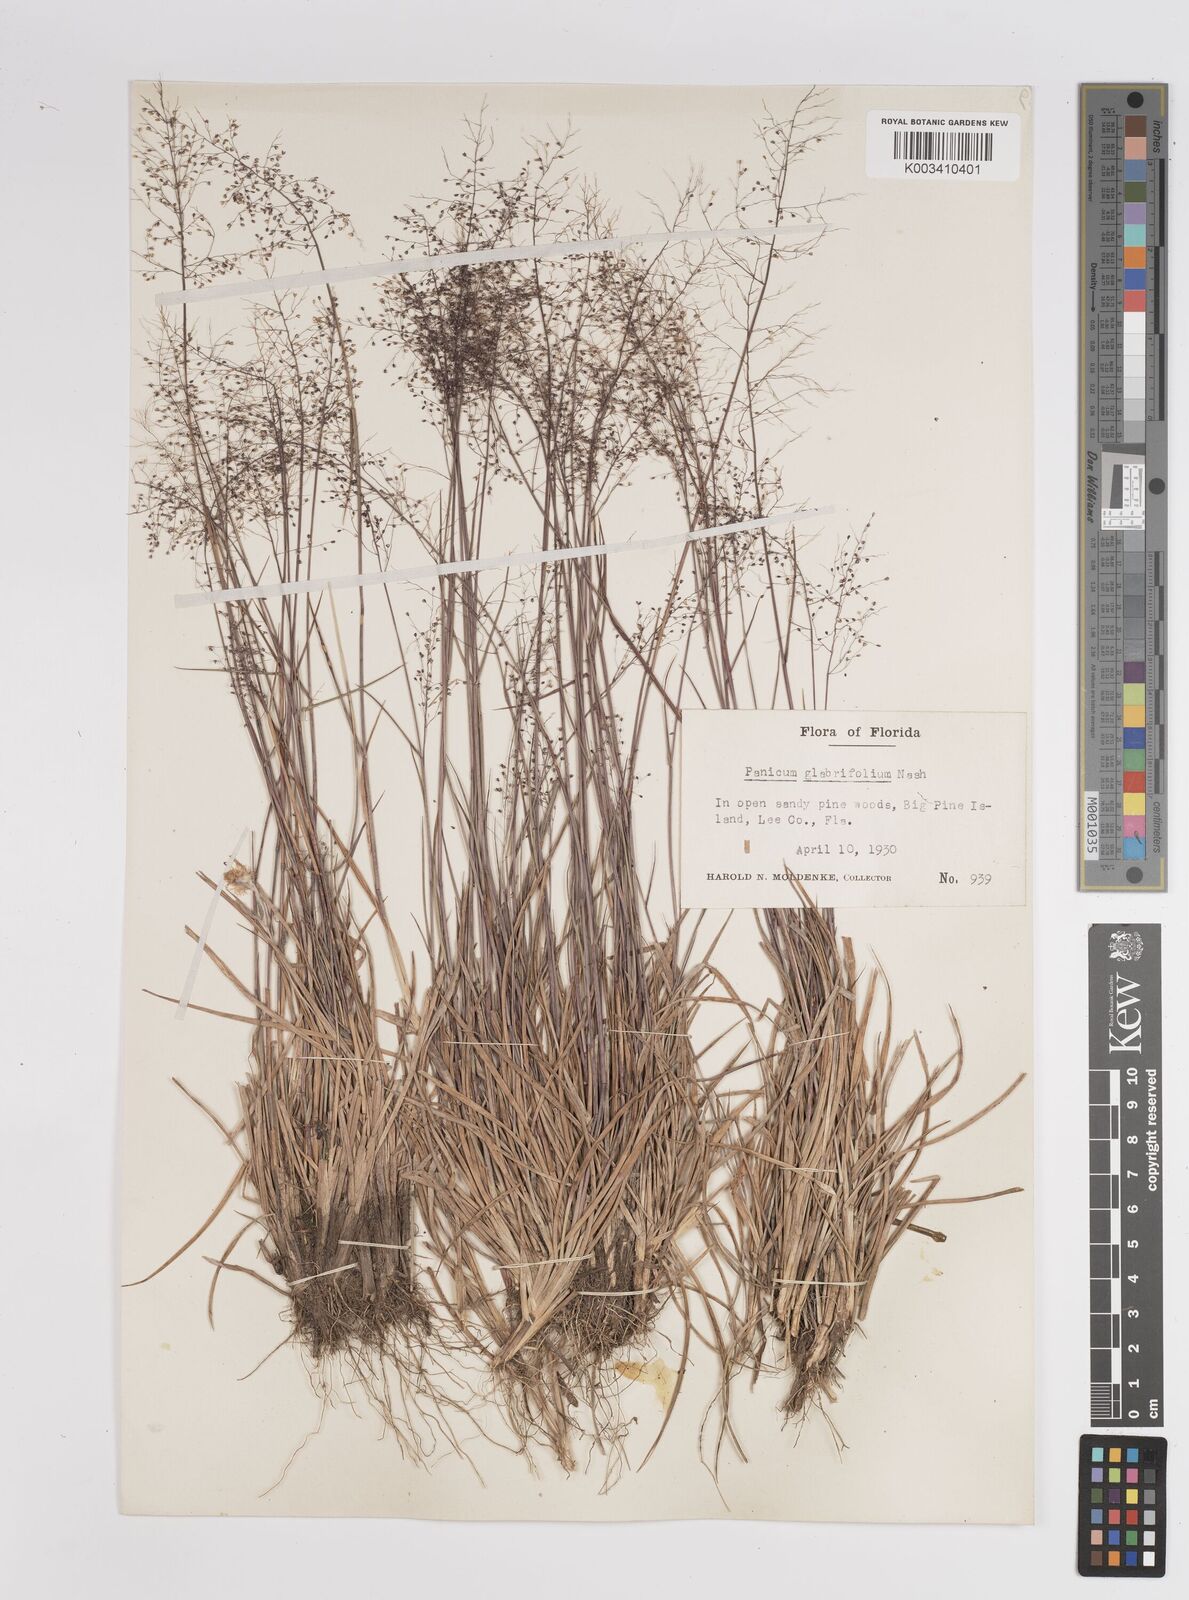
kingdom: Plantae
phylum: Tracheophyta
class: Liliopsida
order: Poales
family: Poaceae
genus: Dichanthelium
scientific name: Dichanthelium glabrifolium
